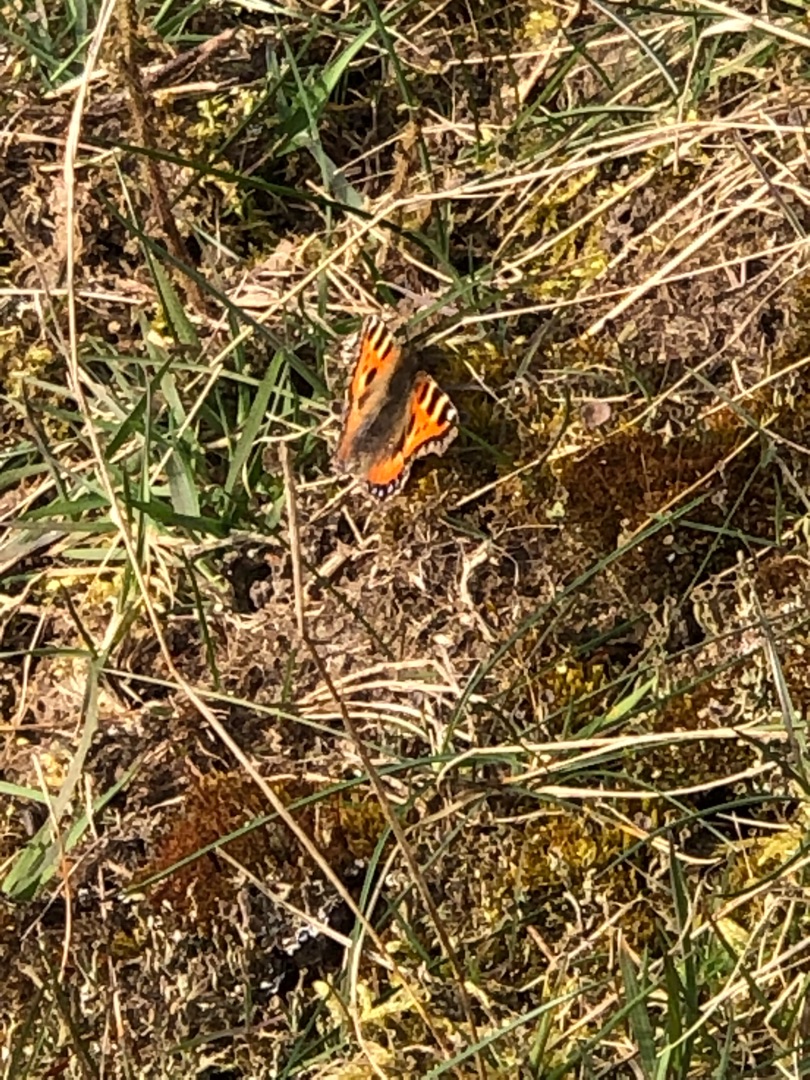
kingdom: Animalia
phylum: Arthropoda
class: Insecta
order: Lepidoptera
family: Nymphalidae
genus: Aglais
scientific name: Aglais urticae
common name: Nældens takvinge
